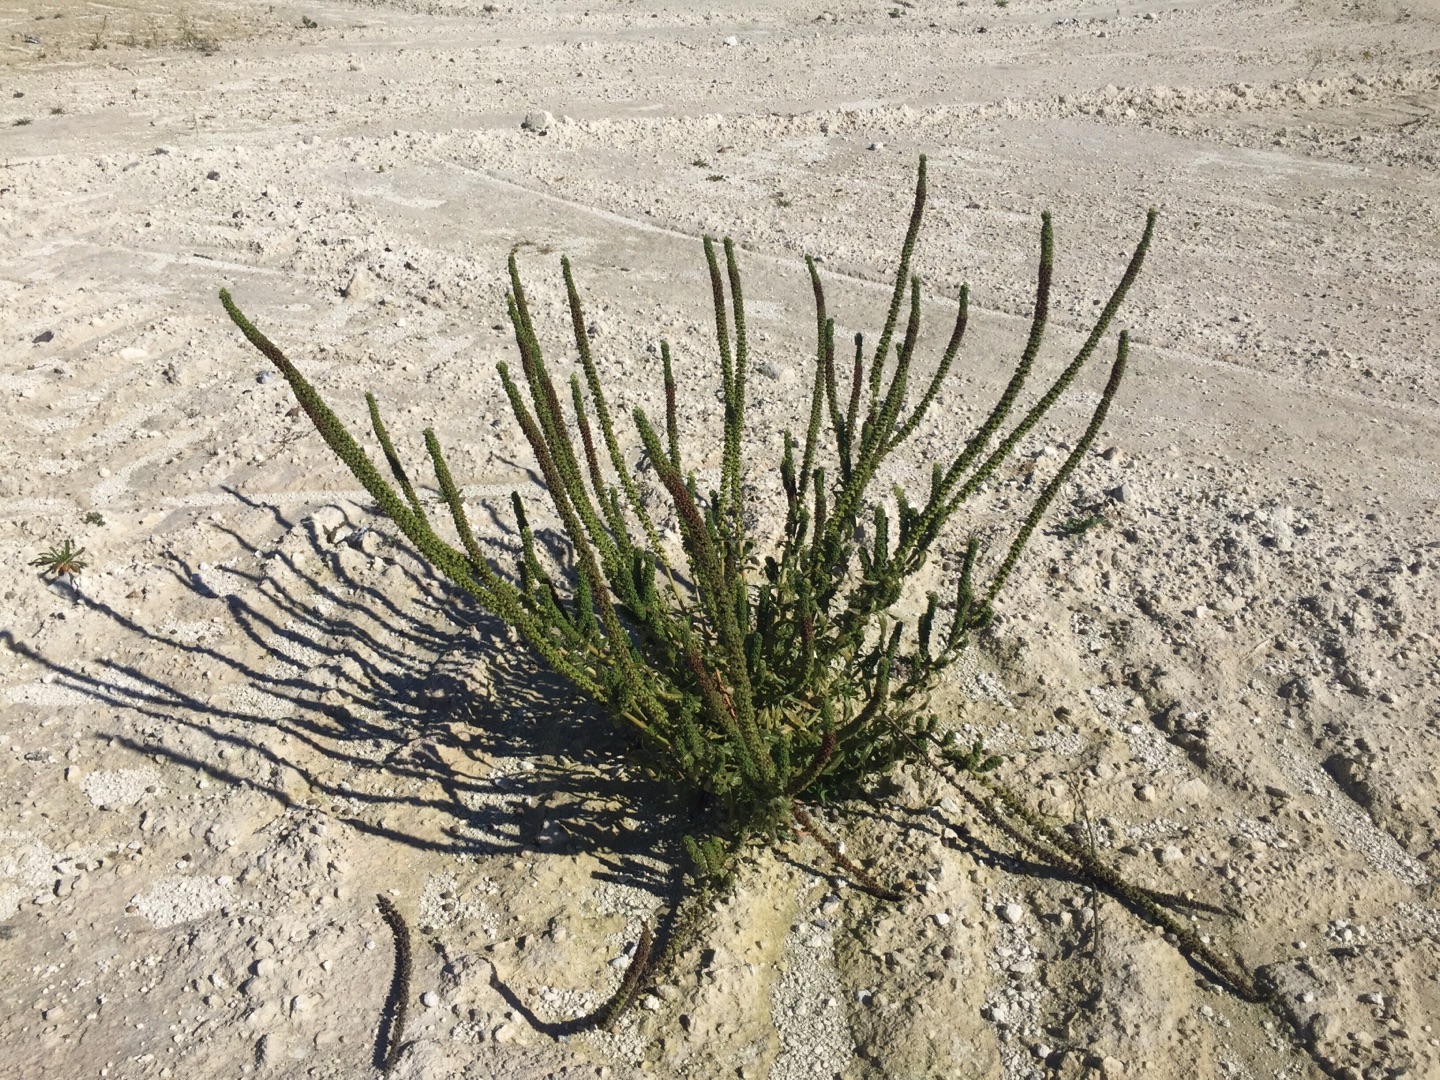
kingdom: Plantae
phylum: Tracheophyta
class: Magnoliopsida
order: Brassicales
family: Resedaceae
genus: Reseda
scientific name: Reseda luteola
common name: Farve-reseda
